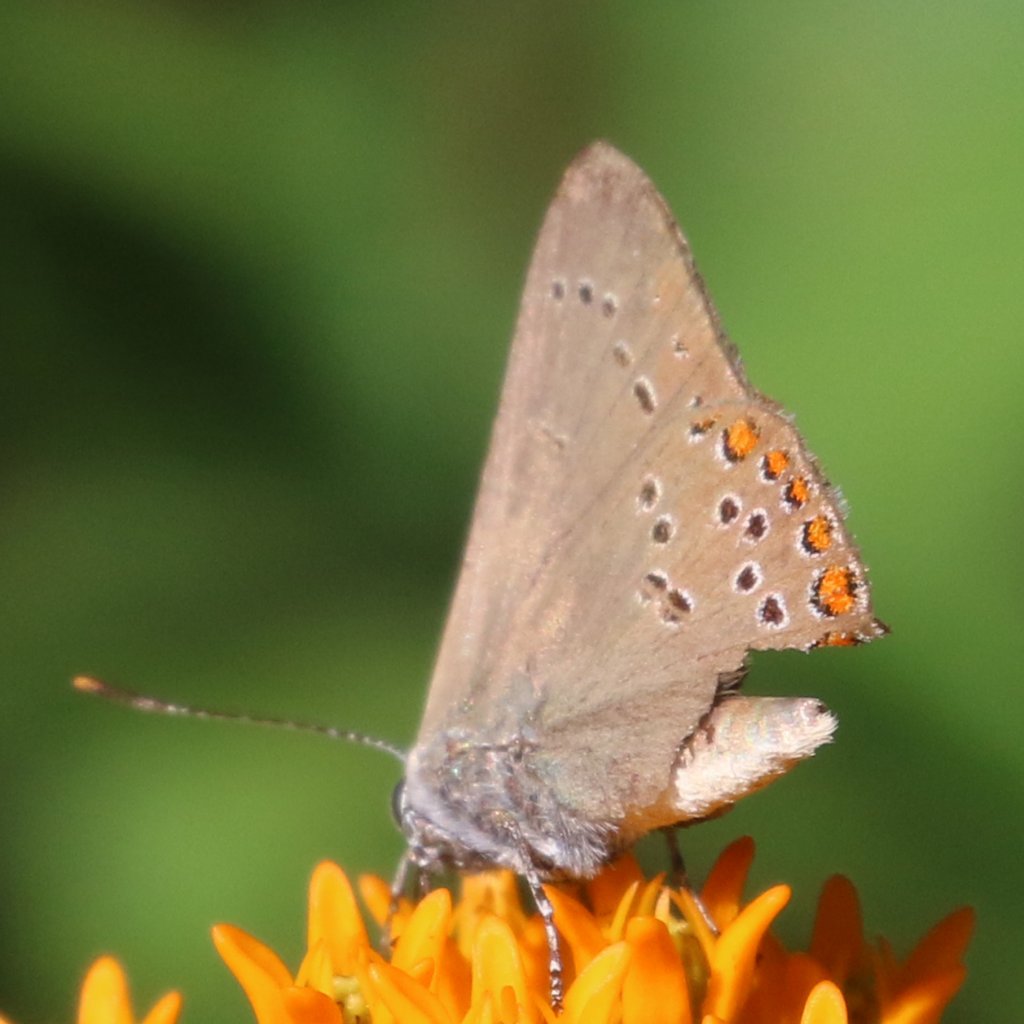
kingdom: Animalia
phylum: Arthropoda
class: Insecta
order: Lepidoptera
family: Lycaenidae
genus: Harkenclenus
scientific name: Harkenclenus titus
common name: Coral Hairstreak
